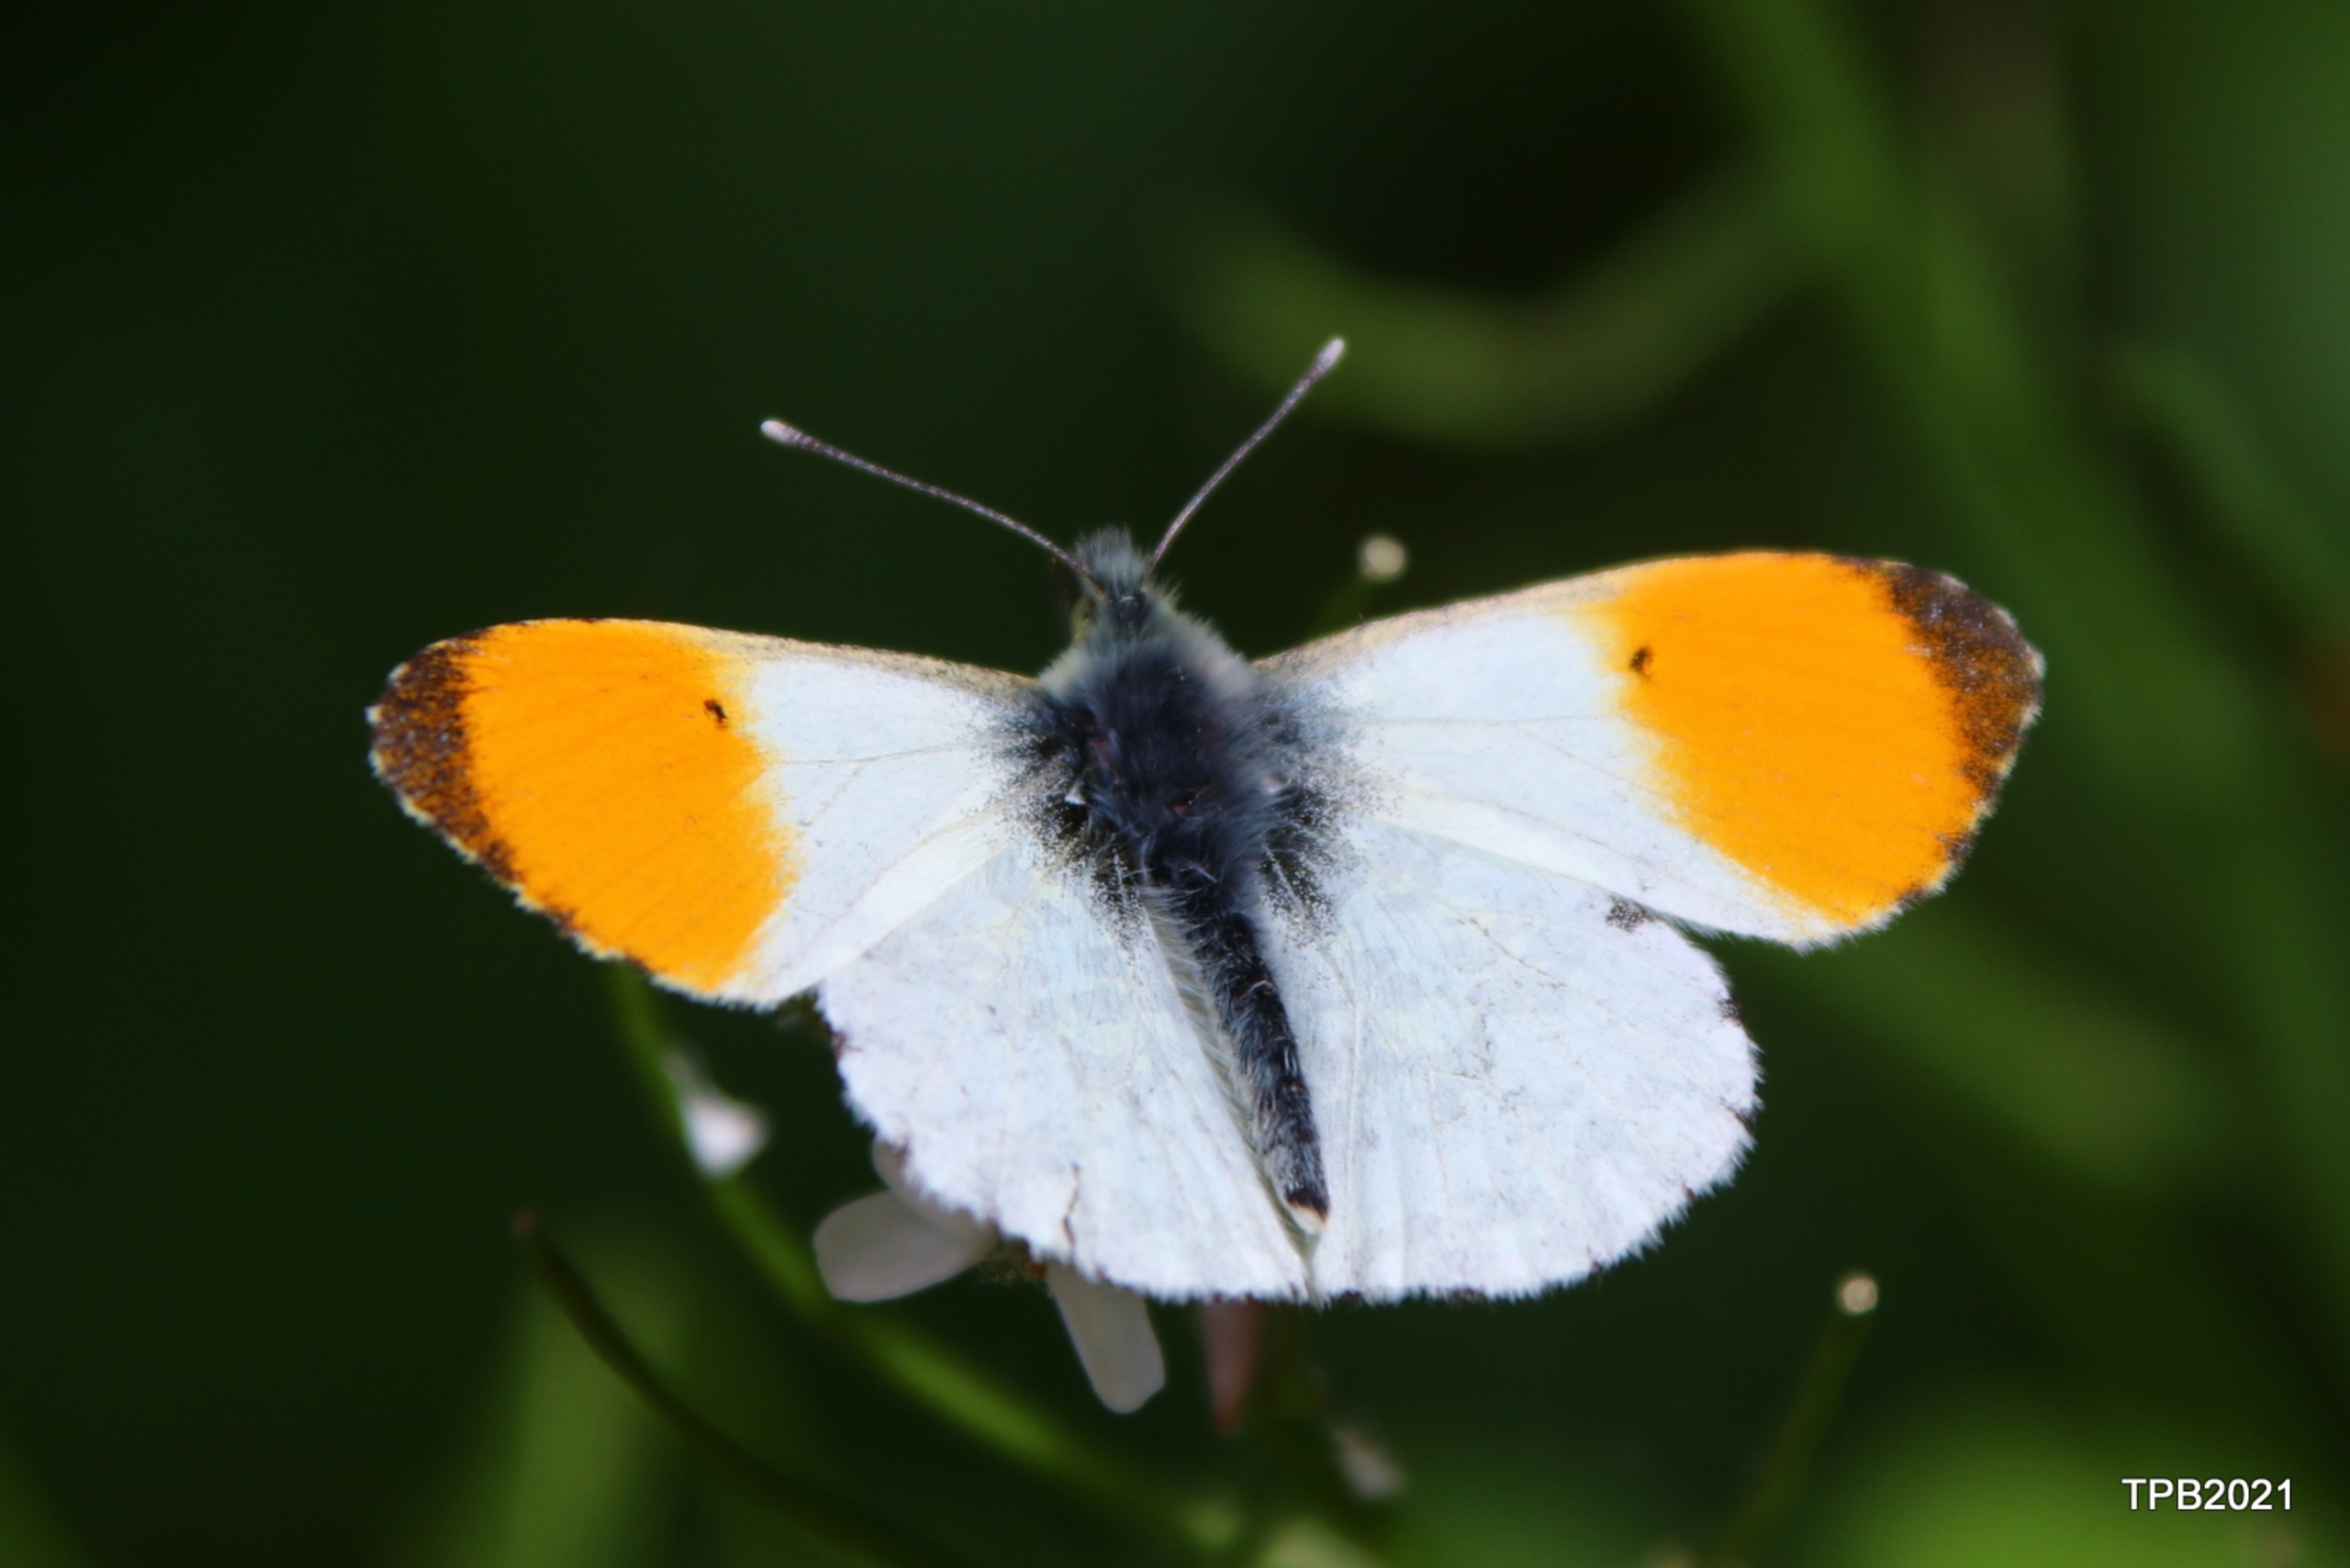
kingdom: Animalia
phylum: Arthropoda
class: Insecta
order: Lepidoptera
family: Pieridae
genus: Anthocharis
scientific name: Anthocharis cardamines
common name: Aurora
